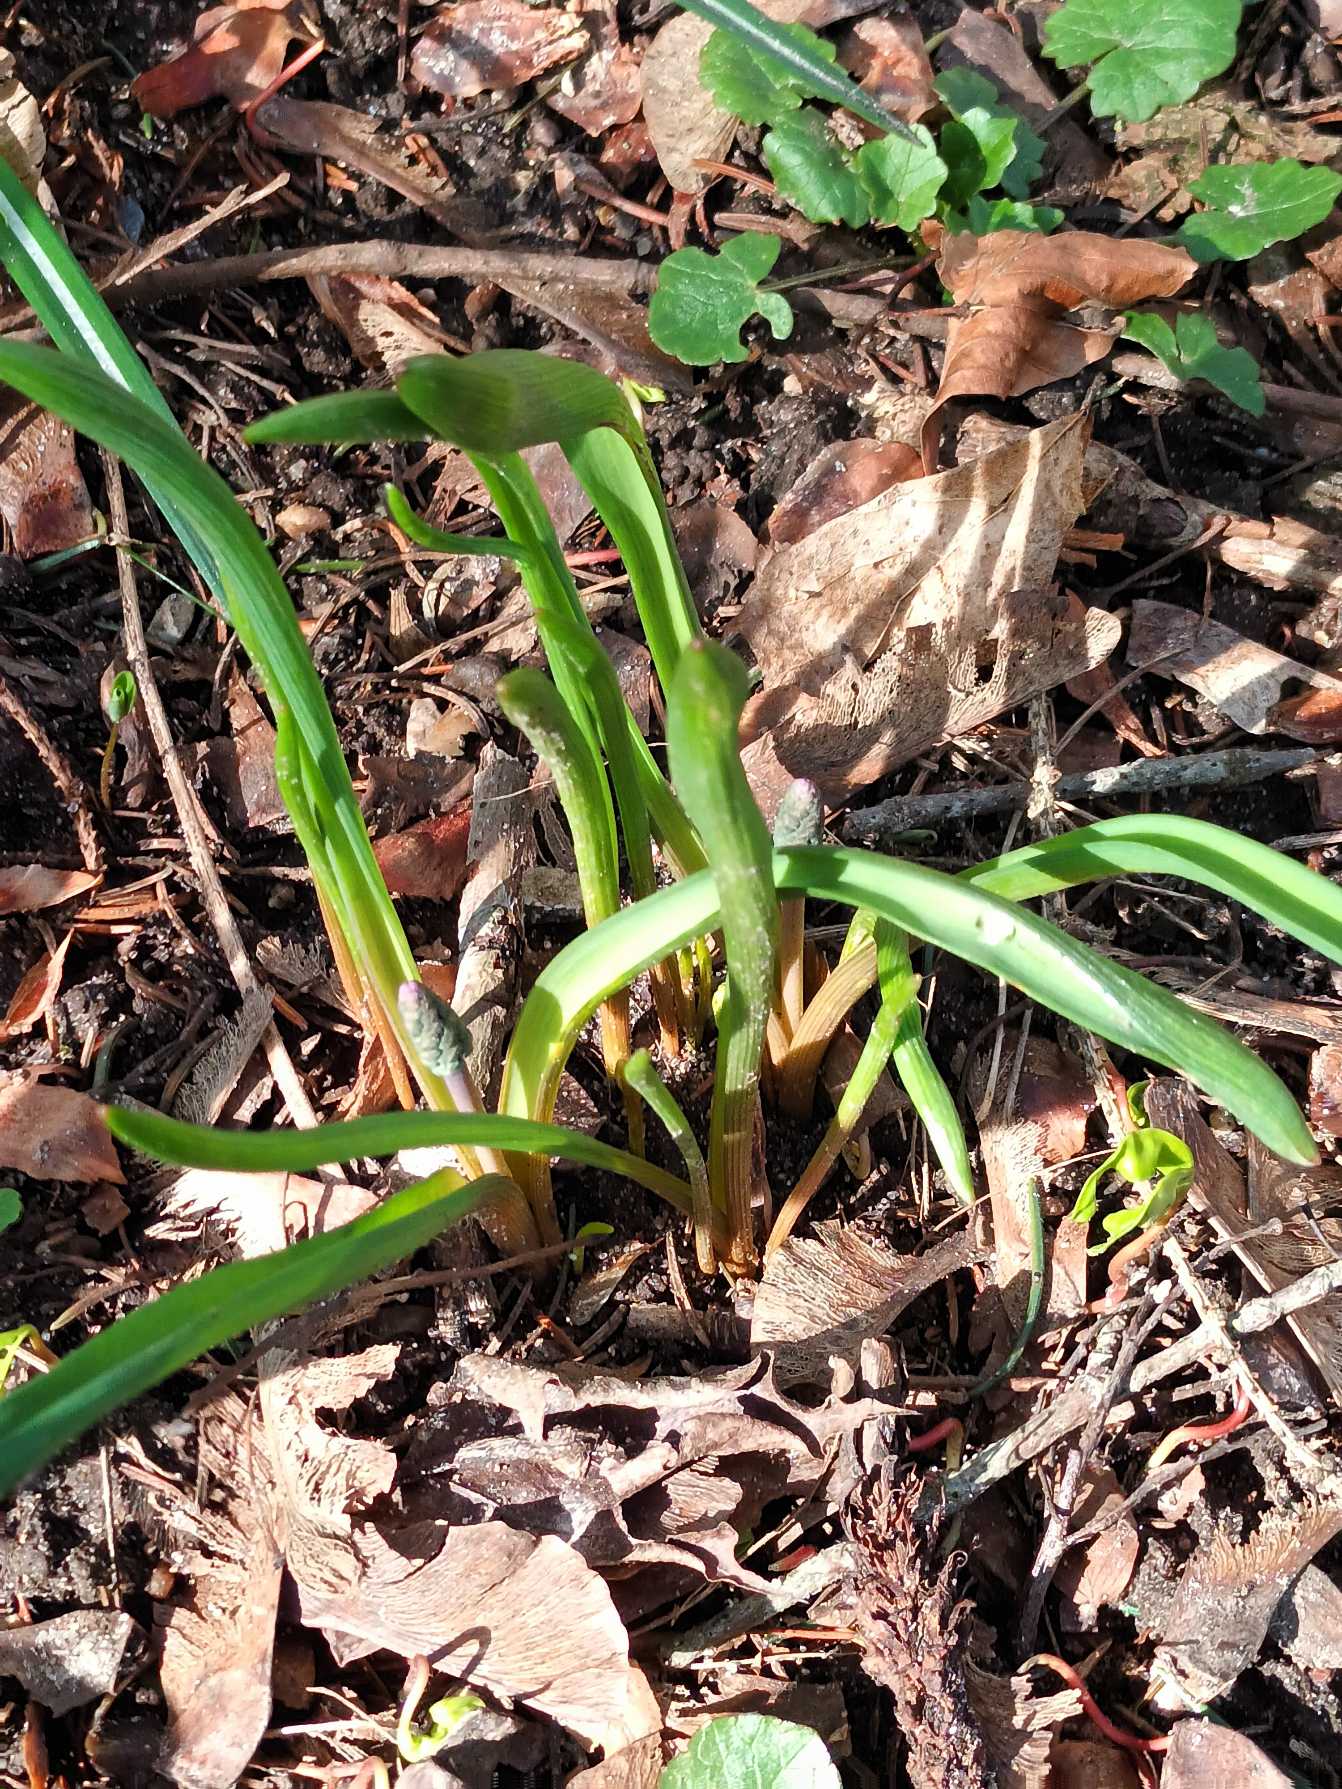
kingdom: Plantae
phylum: Tracheophyta
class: Liliopsida
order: Asparagales
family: Asparagaceae
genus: Muscari
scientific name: Muscari botryoides
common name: Perlehyacint
